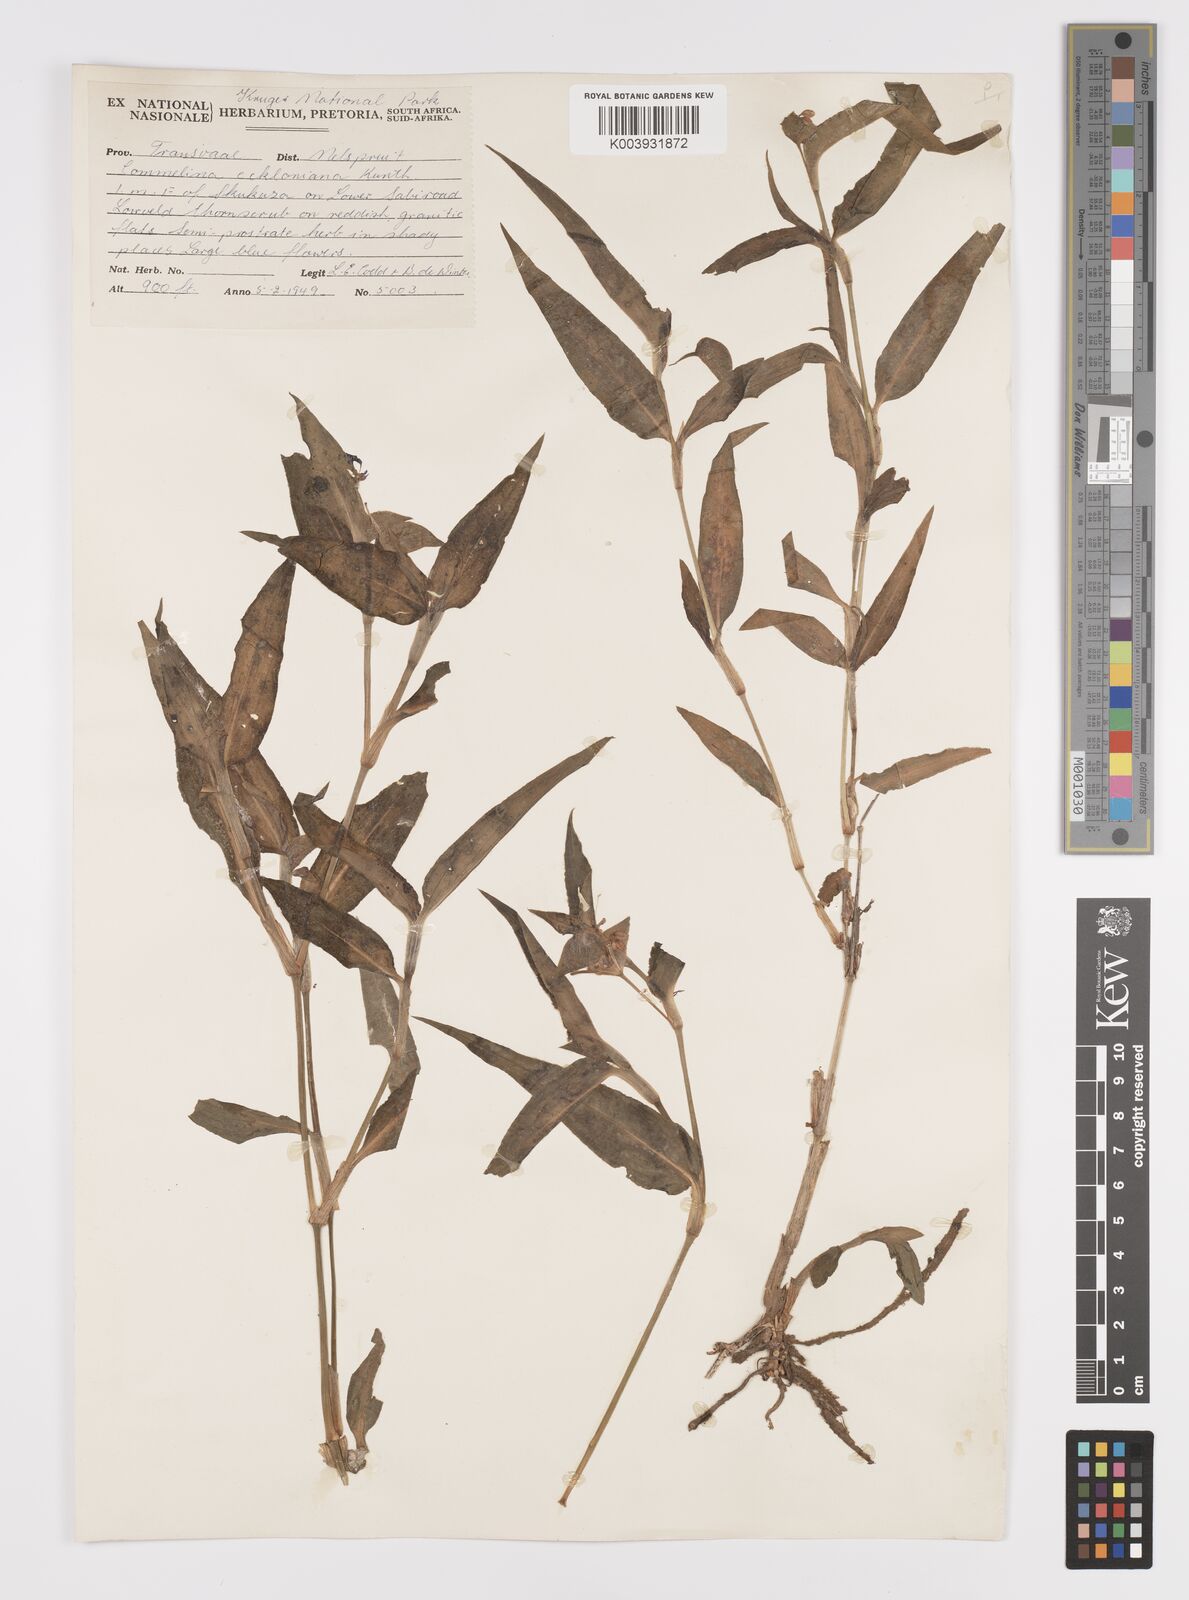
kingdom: Plantae
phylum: Tracheophyta
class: Liliopsida
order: Commelinales
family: Commelinaceae
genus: Commelina
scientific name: Commelina eckloniana
